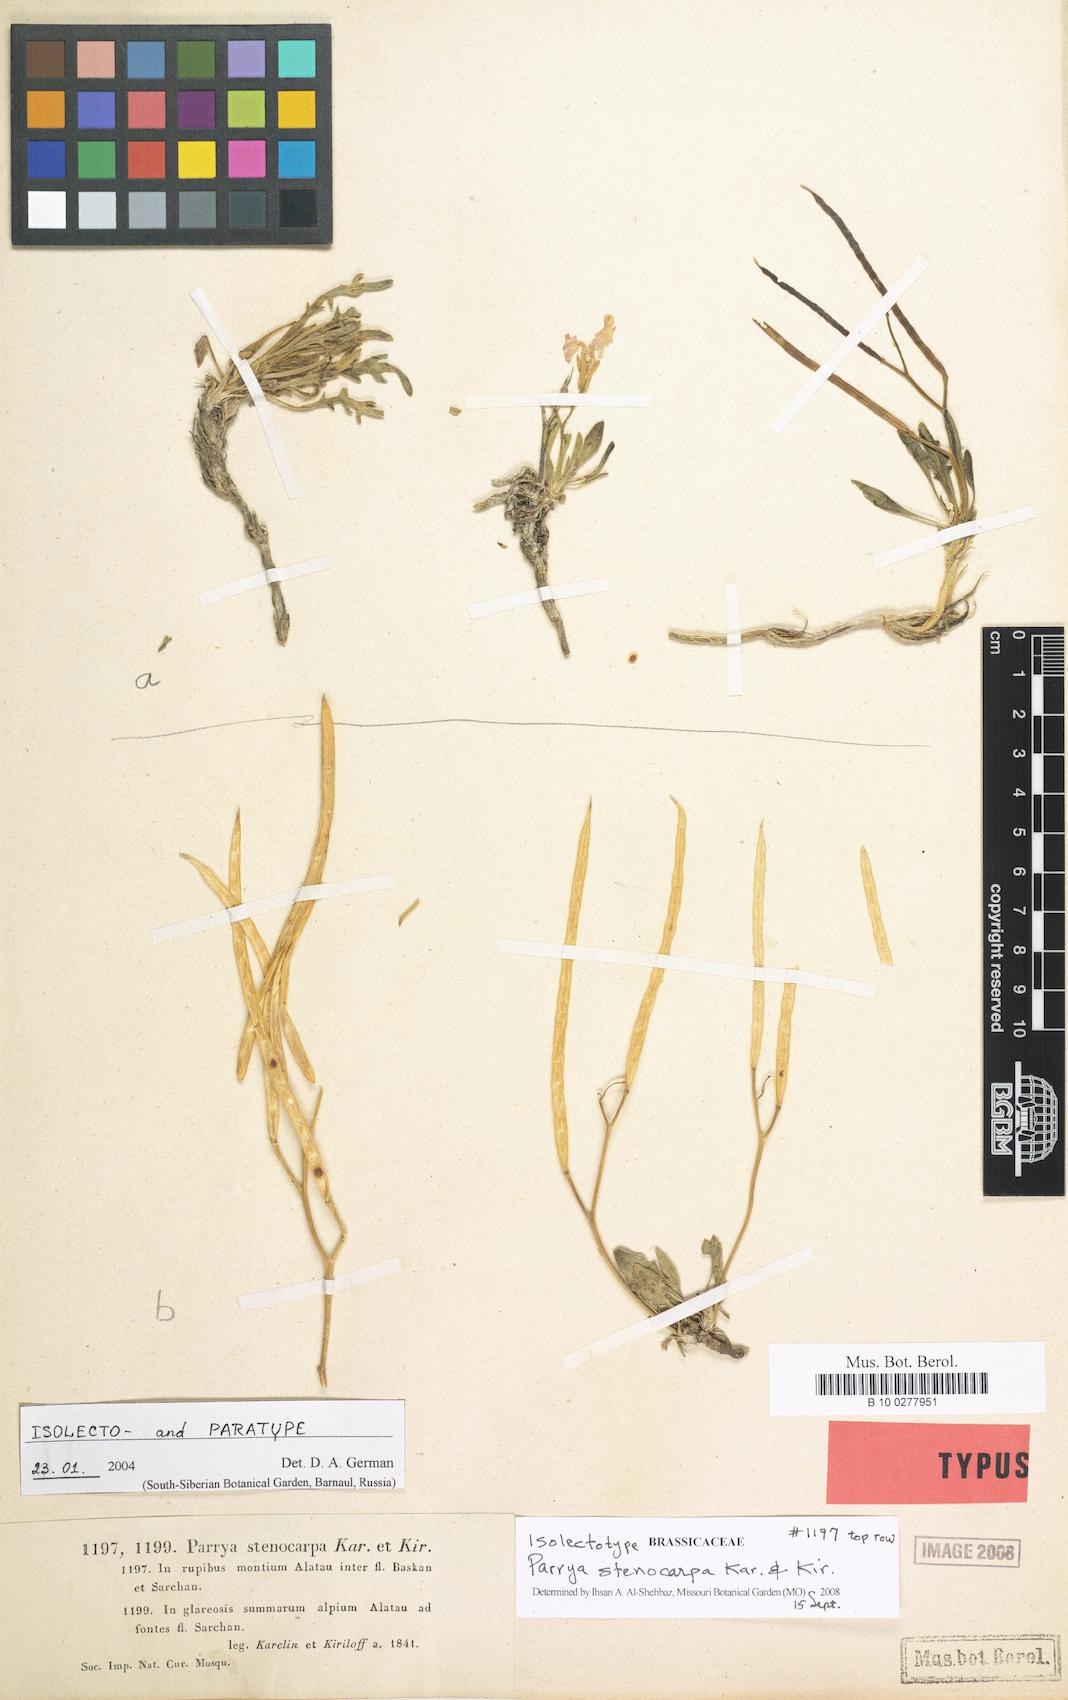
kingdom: Plantae
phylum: Tracheophyta
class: Magnoliopsida
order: Brassicales
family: Brassicaceae
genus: Parrya
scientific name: Parrya stenocarpa
